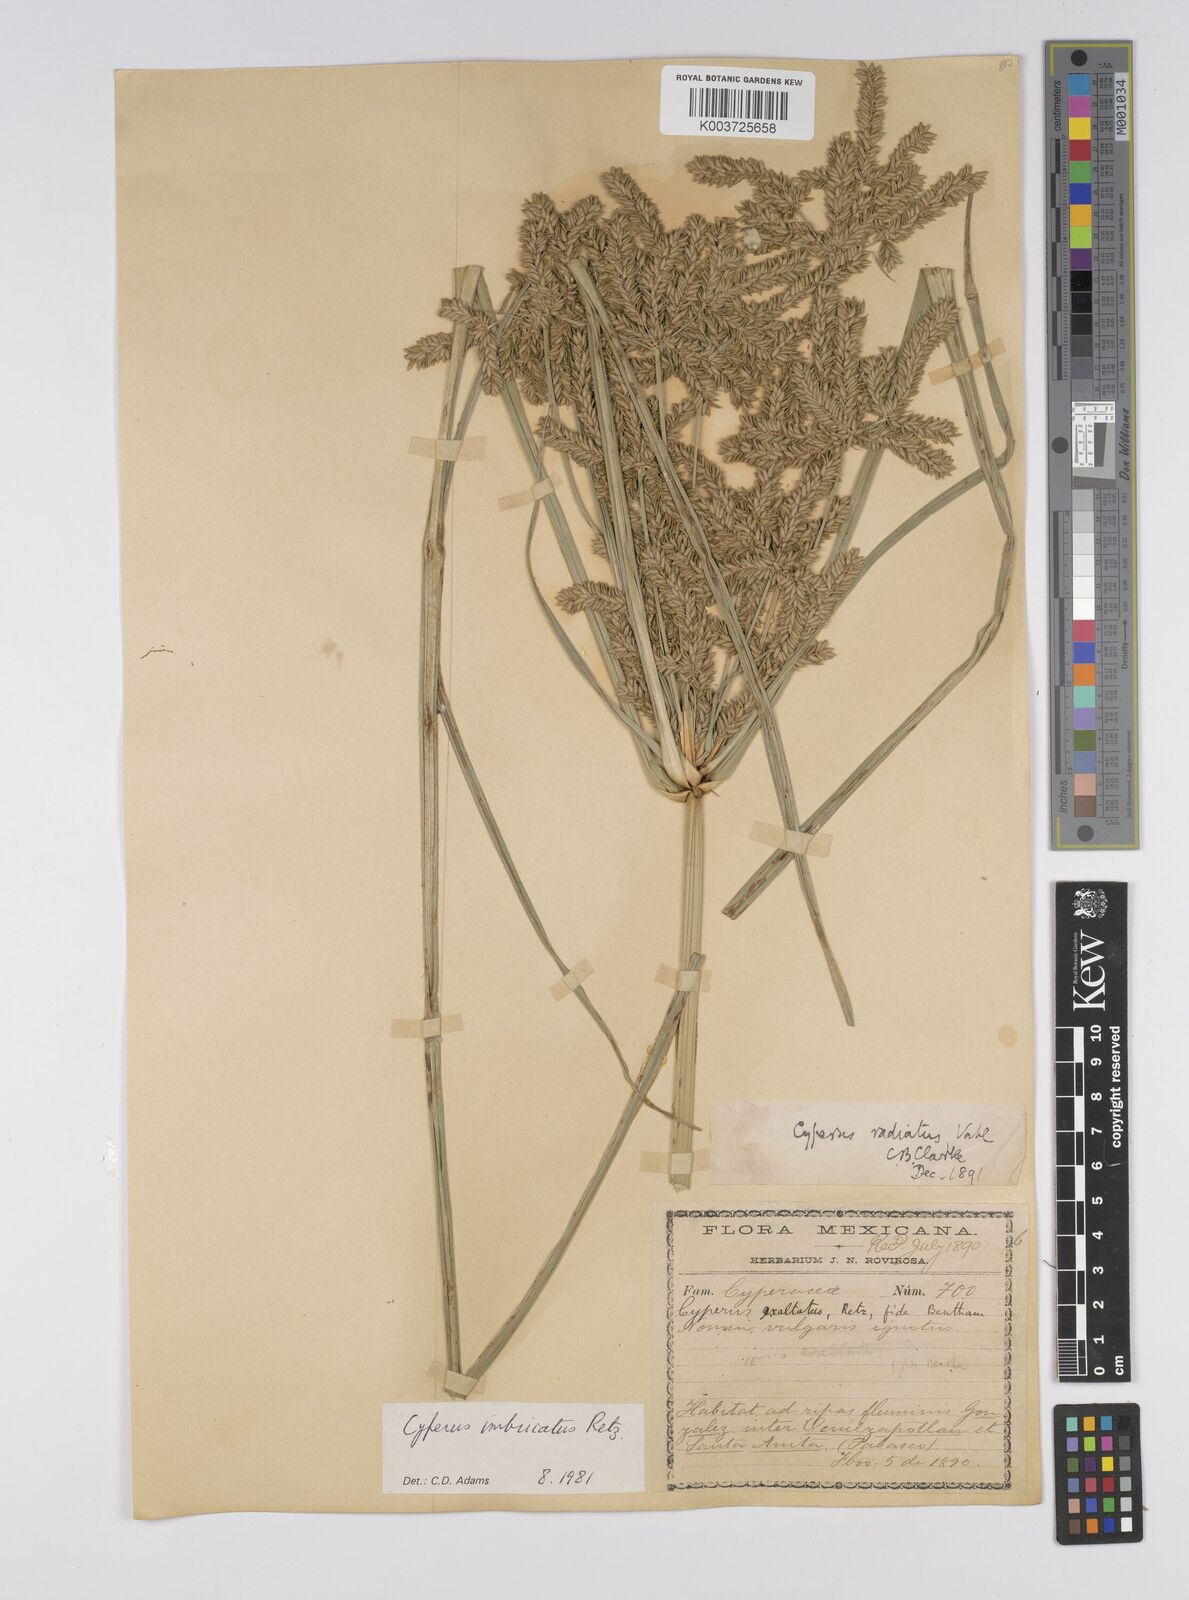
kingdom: Plantae
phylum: Tracheophyta
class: Liliopsida
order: Poales
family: Cyperaceae
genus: Cyperus
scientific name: Cyperus imbricatus
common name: Shingle flatsedge
